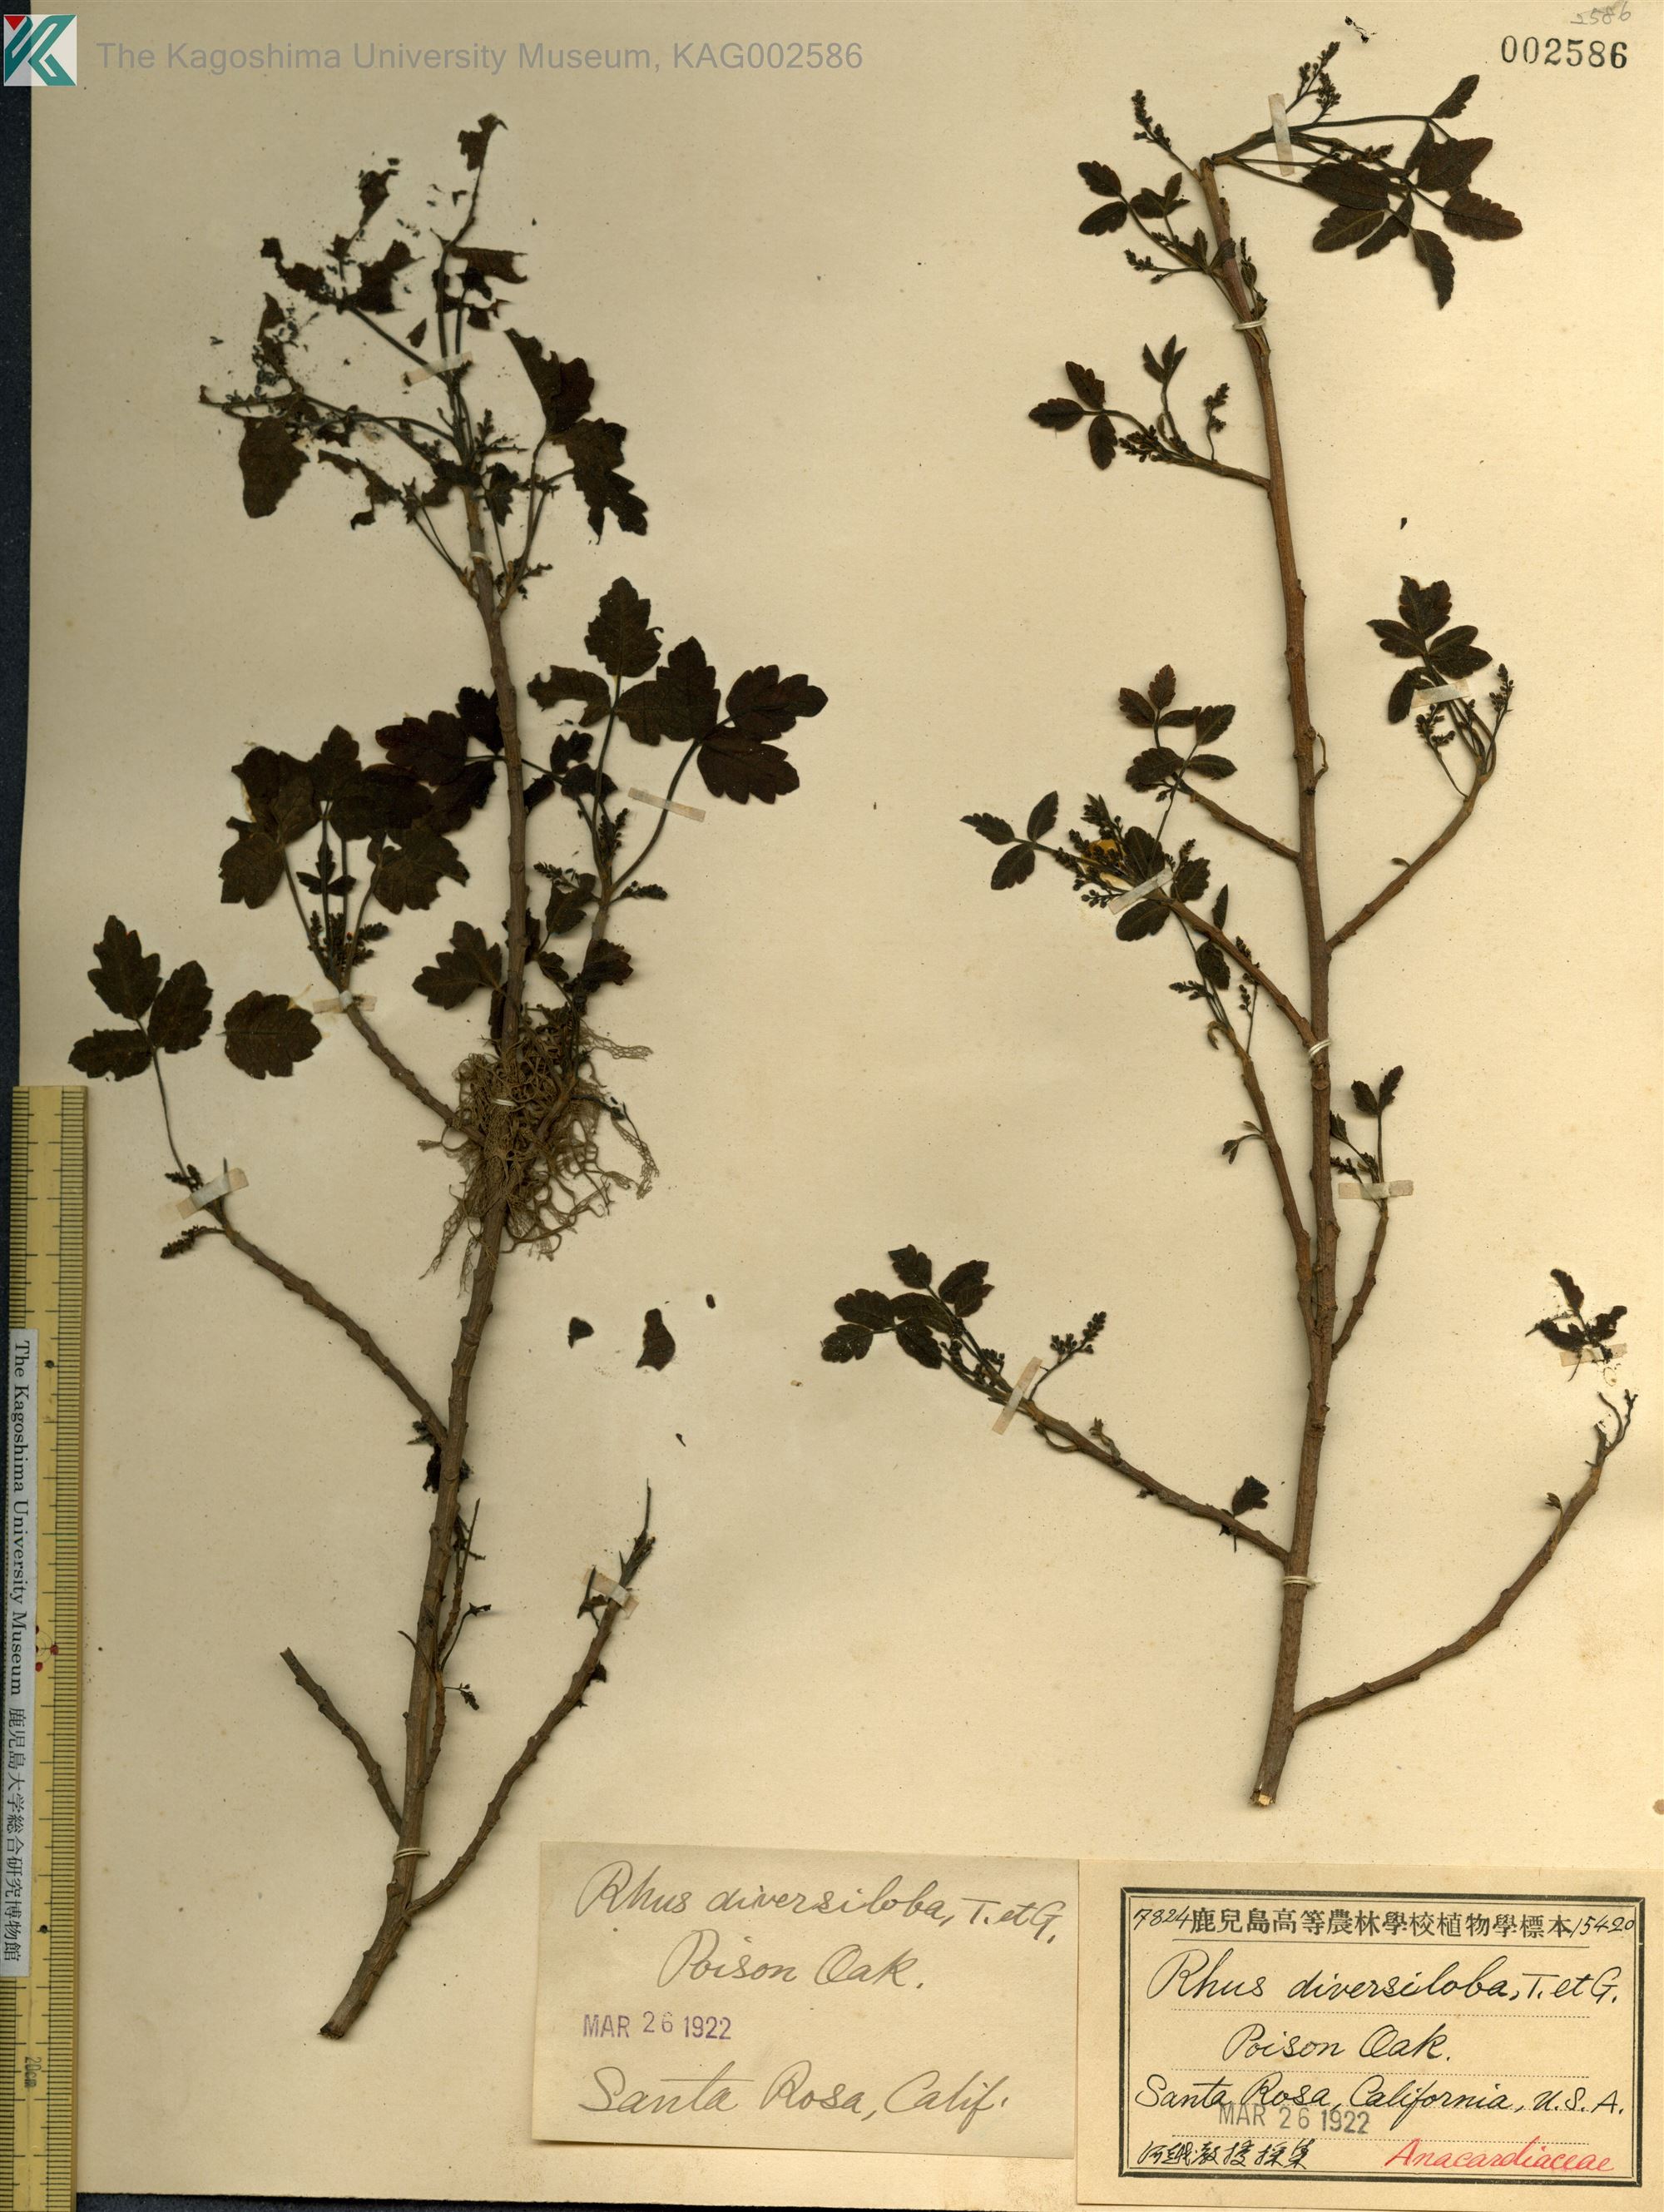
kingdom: Plantae
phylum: Tracheophyta
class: Magnoliopsida
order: Sapindales
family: Anacardiaceae
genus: Toxicodendron
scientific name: Toxicodendron diversilobum
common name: Pacific poison-oak
